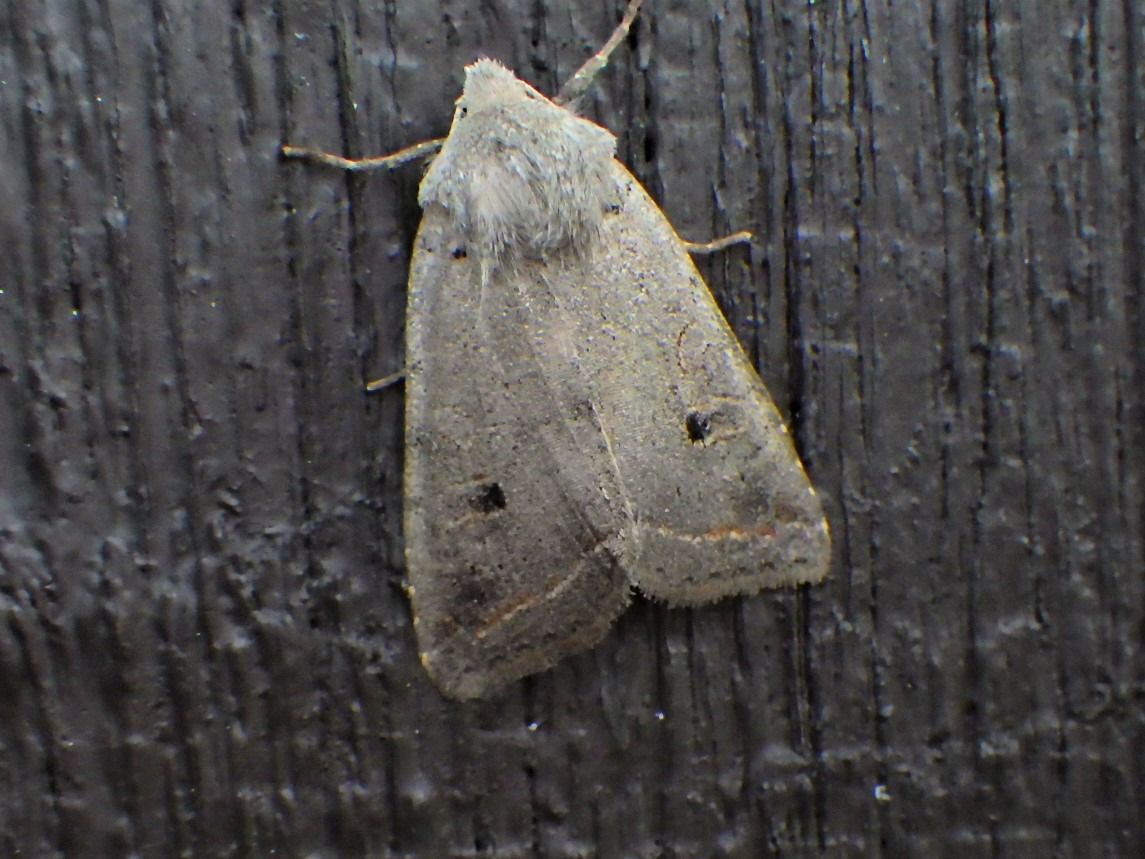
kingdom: Animalia
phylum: Arthropoda
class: Insecta
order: Lepidoptera
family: Noctuidae
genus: Agrochola
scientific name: Agrochola Leptologia lota
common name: Pile-jordfarveugle
